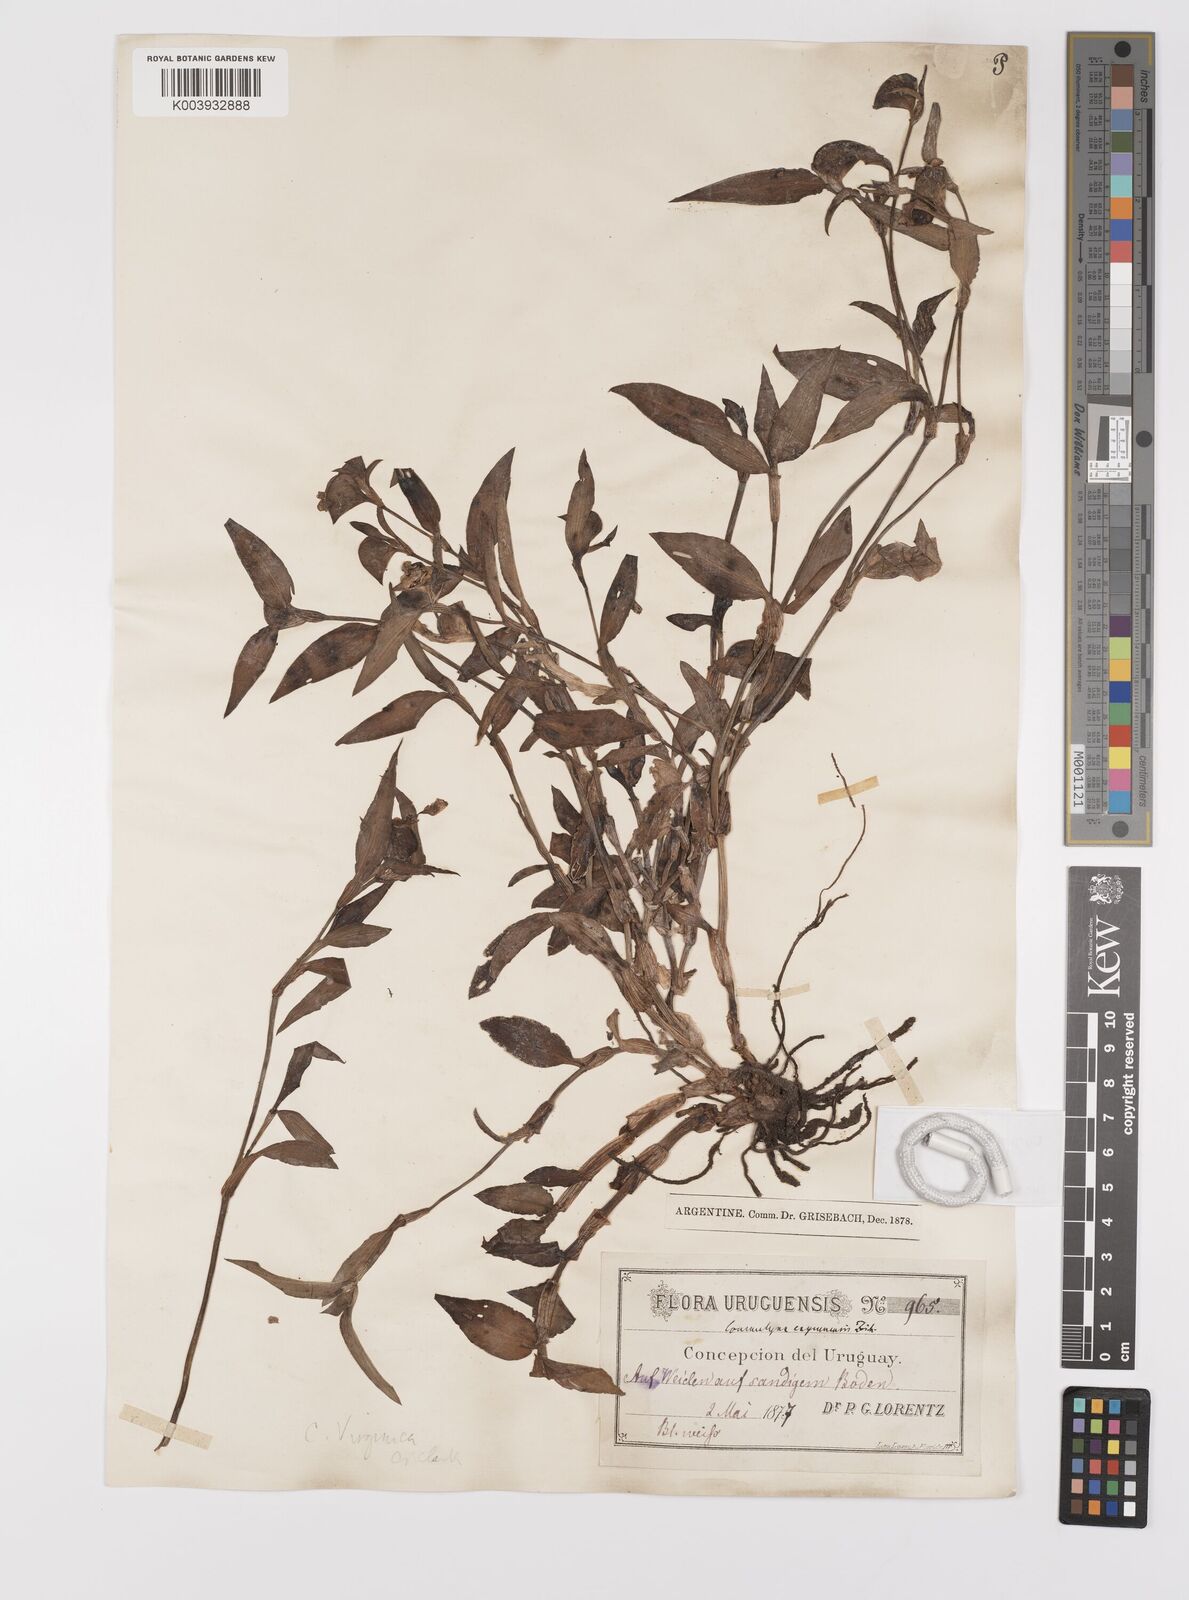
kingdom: Plantae
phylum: Tracheophyta
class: Liliopsida
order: Commelinales
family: Commelinaceae
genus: Commelina
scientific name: Commelina erecta
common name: Blousel blommetjie
